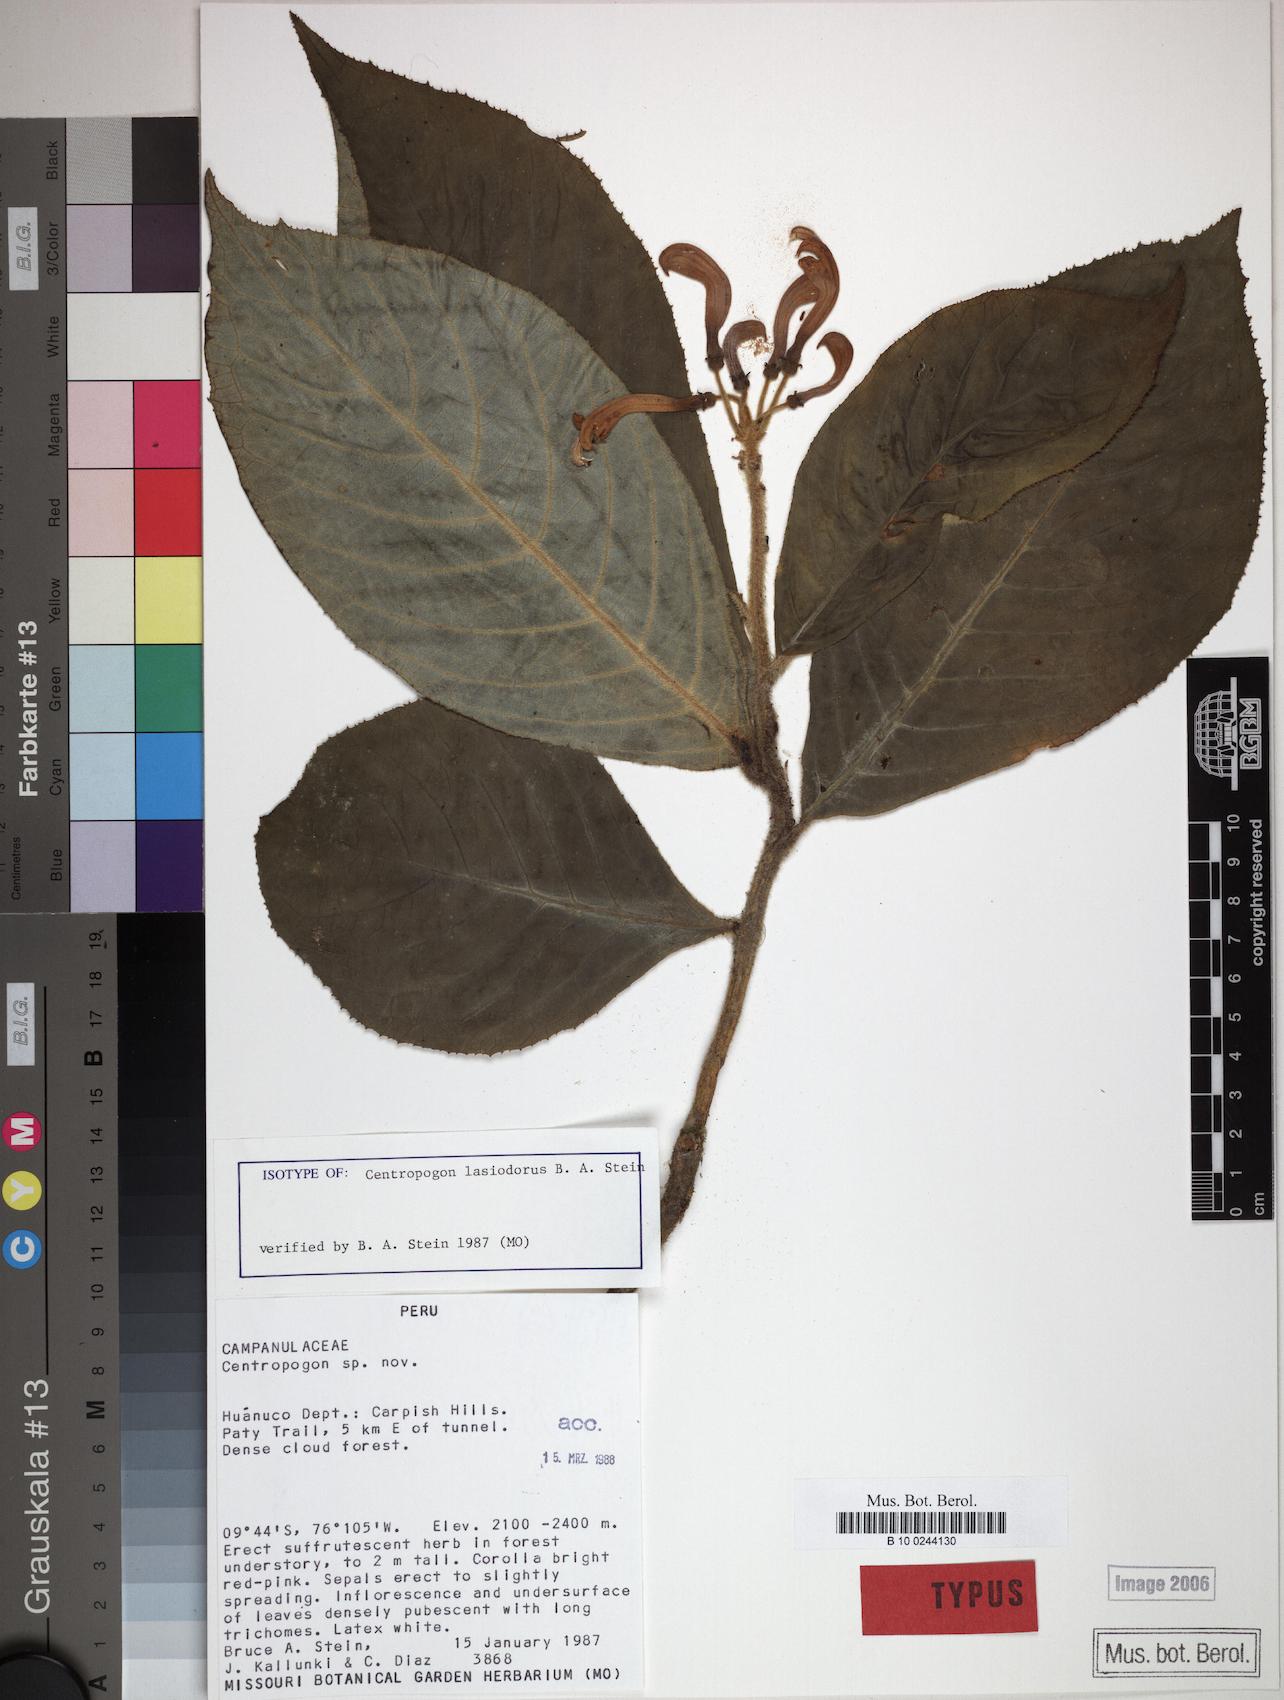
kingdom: Plantae
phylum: Tracheophyta
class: Magnoliopsida
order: Asterales
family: Campanulaceae
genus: Centropogon
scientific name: Centropogon lasiodorus
